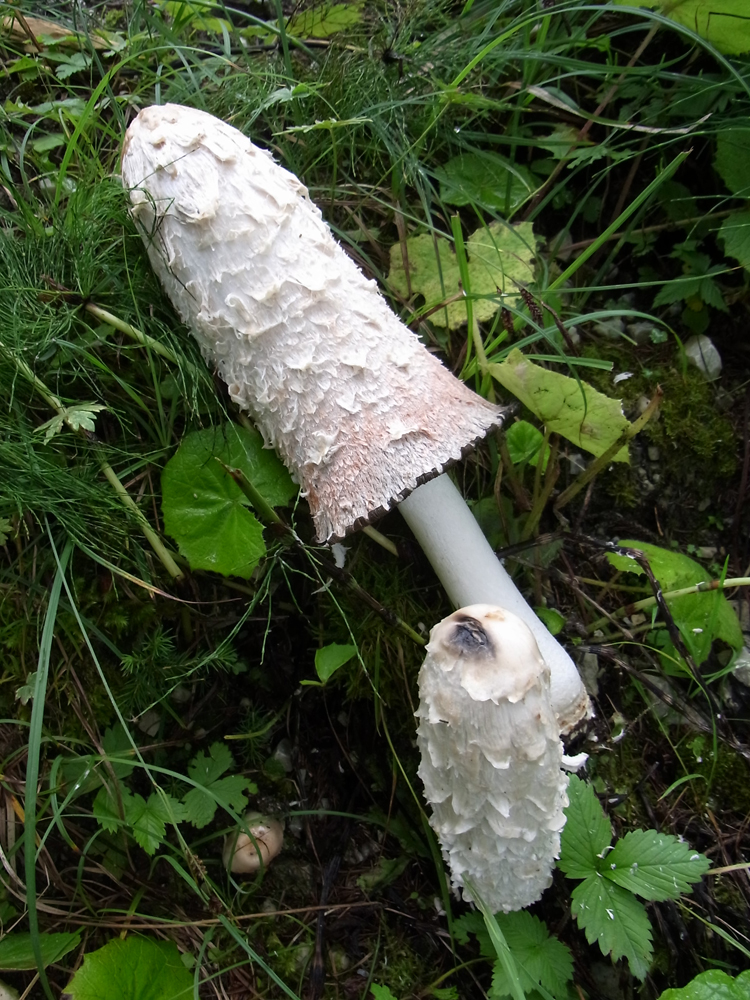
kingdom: Fungi
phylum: Basidiomycota
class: Agaricomycetes
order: Agaricales
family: Agaricaceae
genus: Coprinus
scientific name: Coprinus comatus
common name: Lawyer's wig
